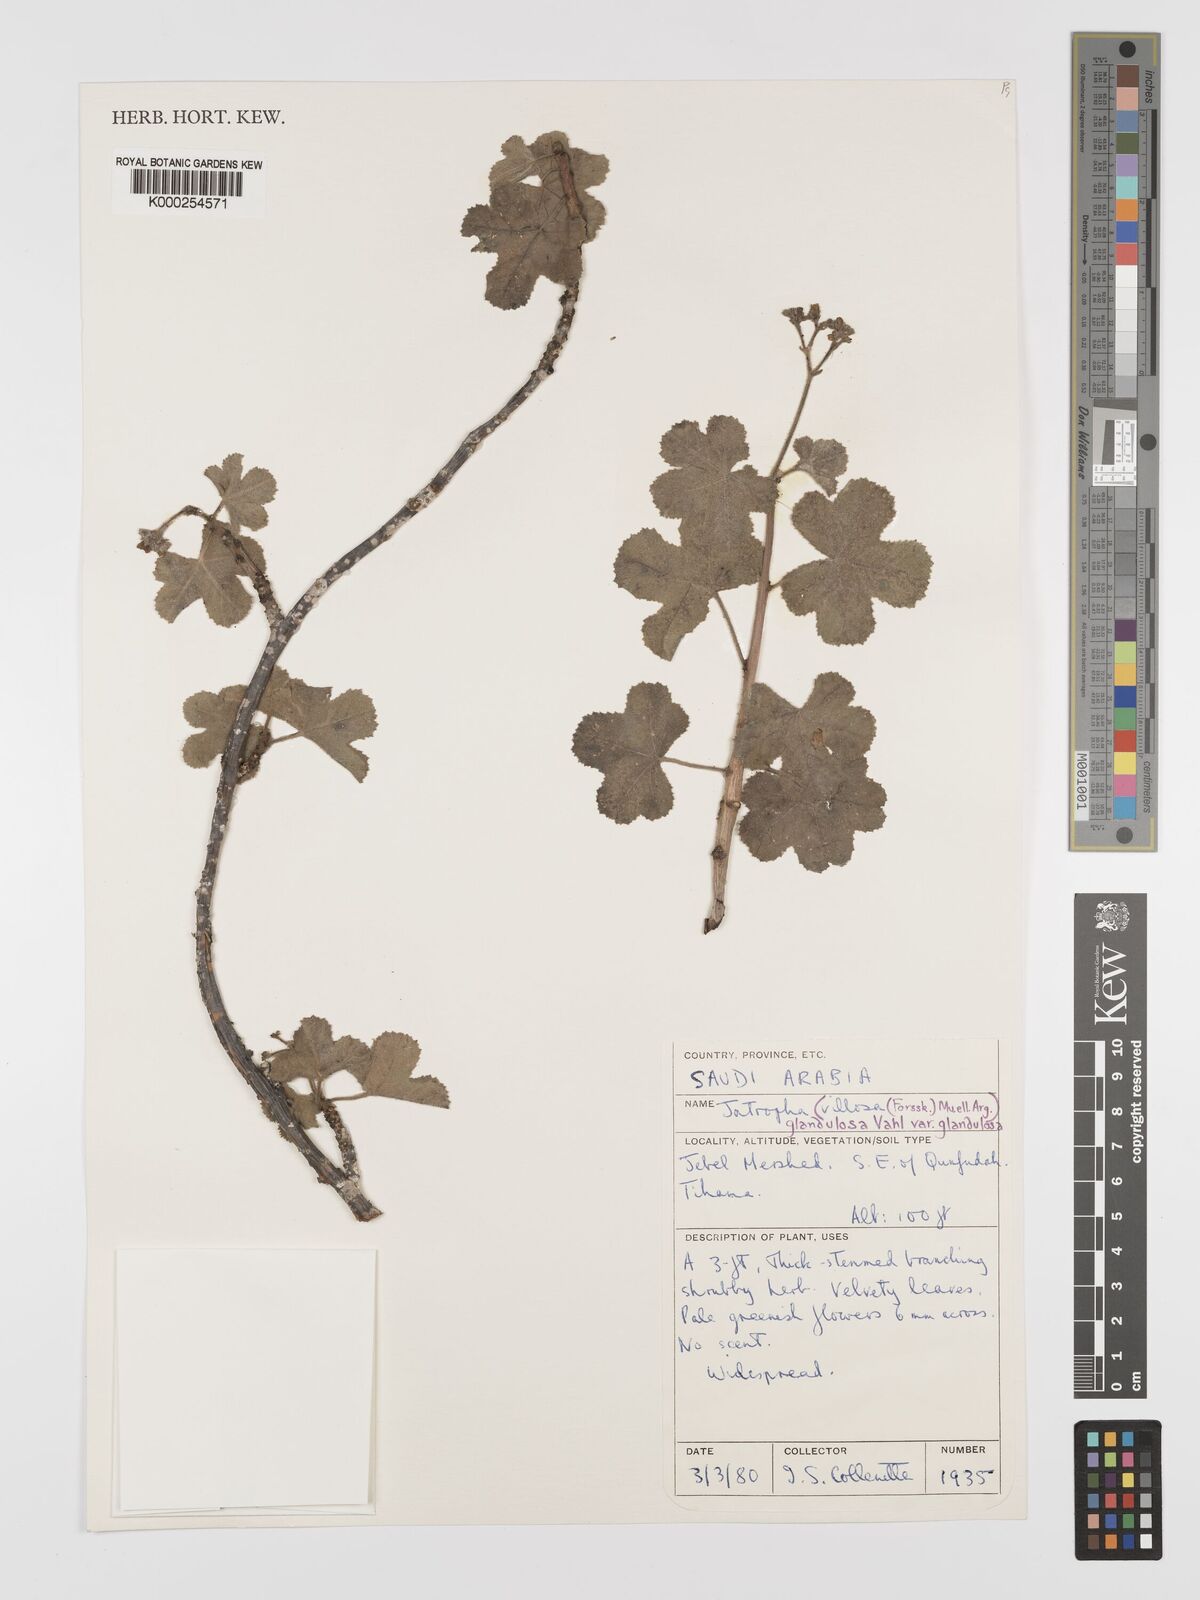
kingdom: Plantae
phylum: Tracheophyta
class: Magnoliopsida
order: Malpighiales
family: Euphorbiaceae
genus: Jatropha
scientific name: Jatropha pelargoniifolia
